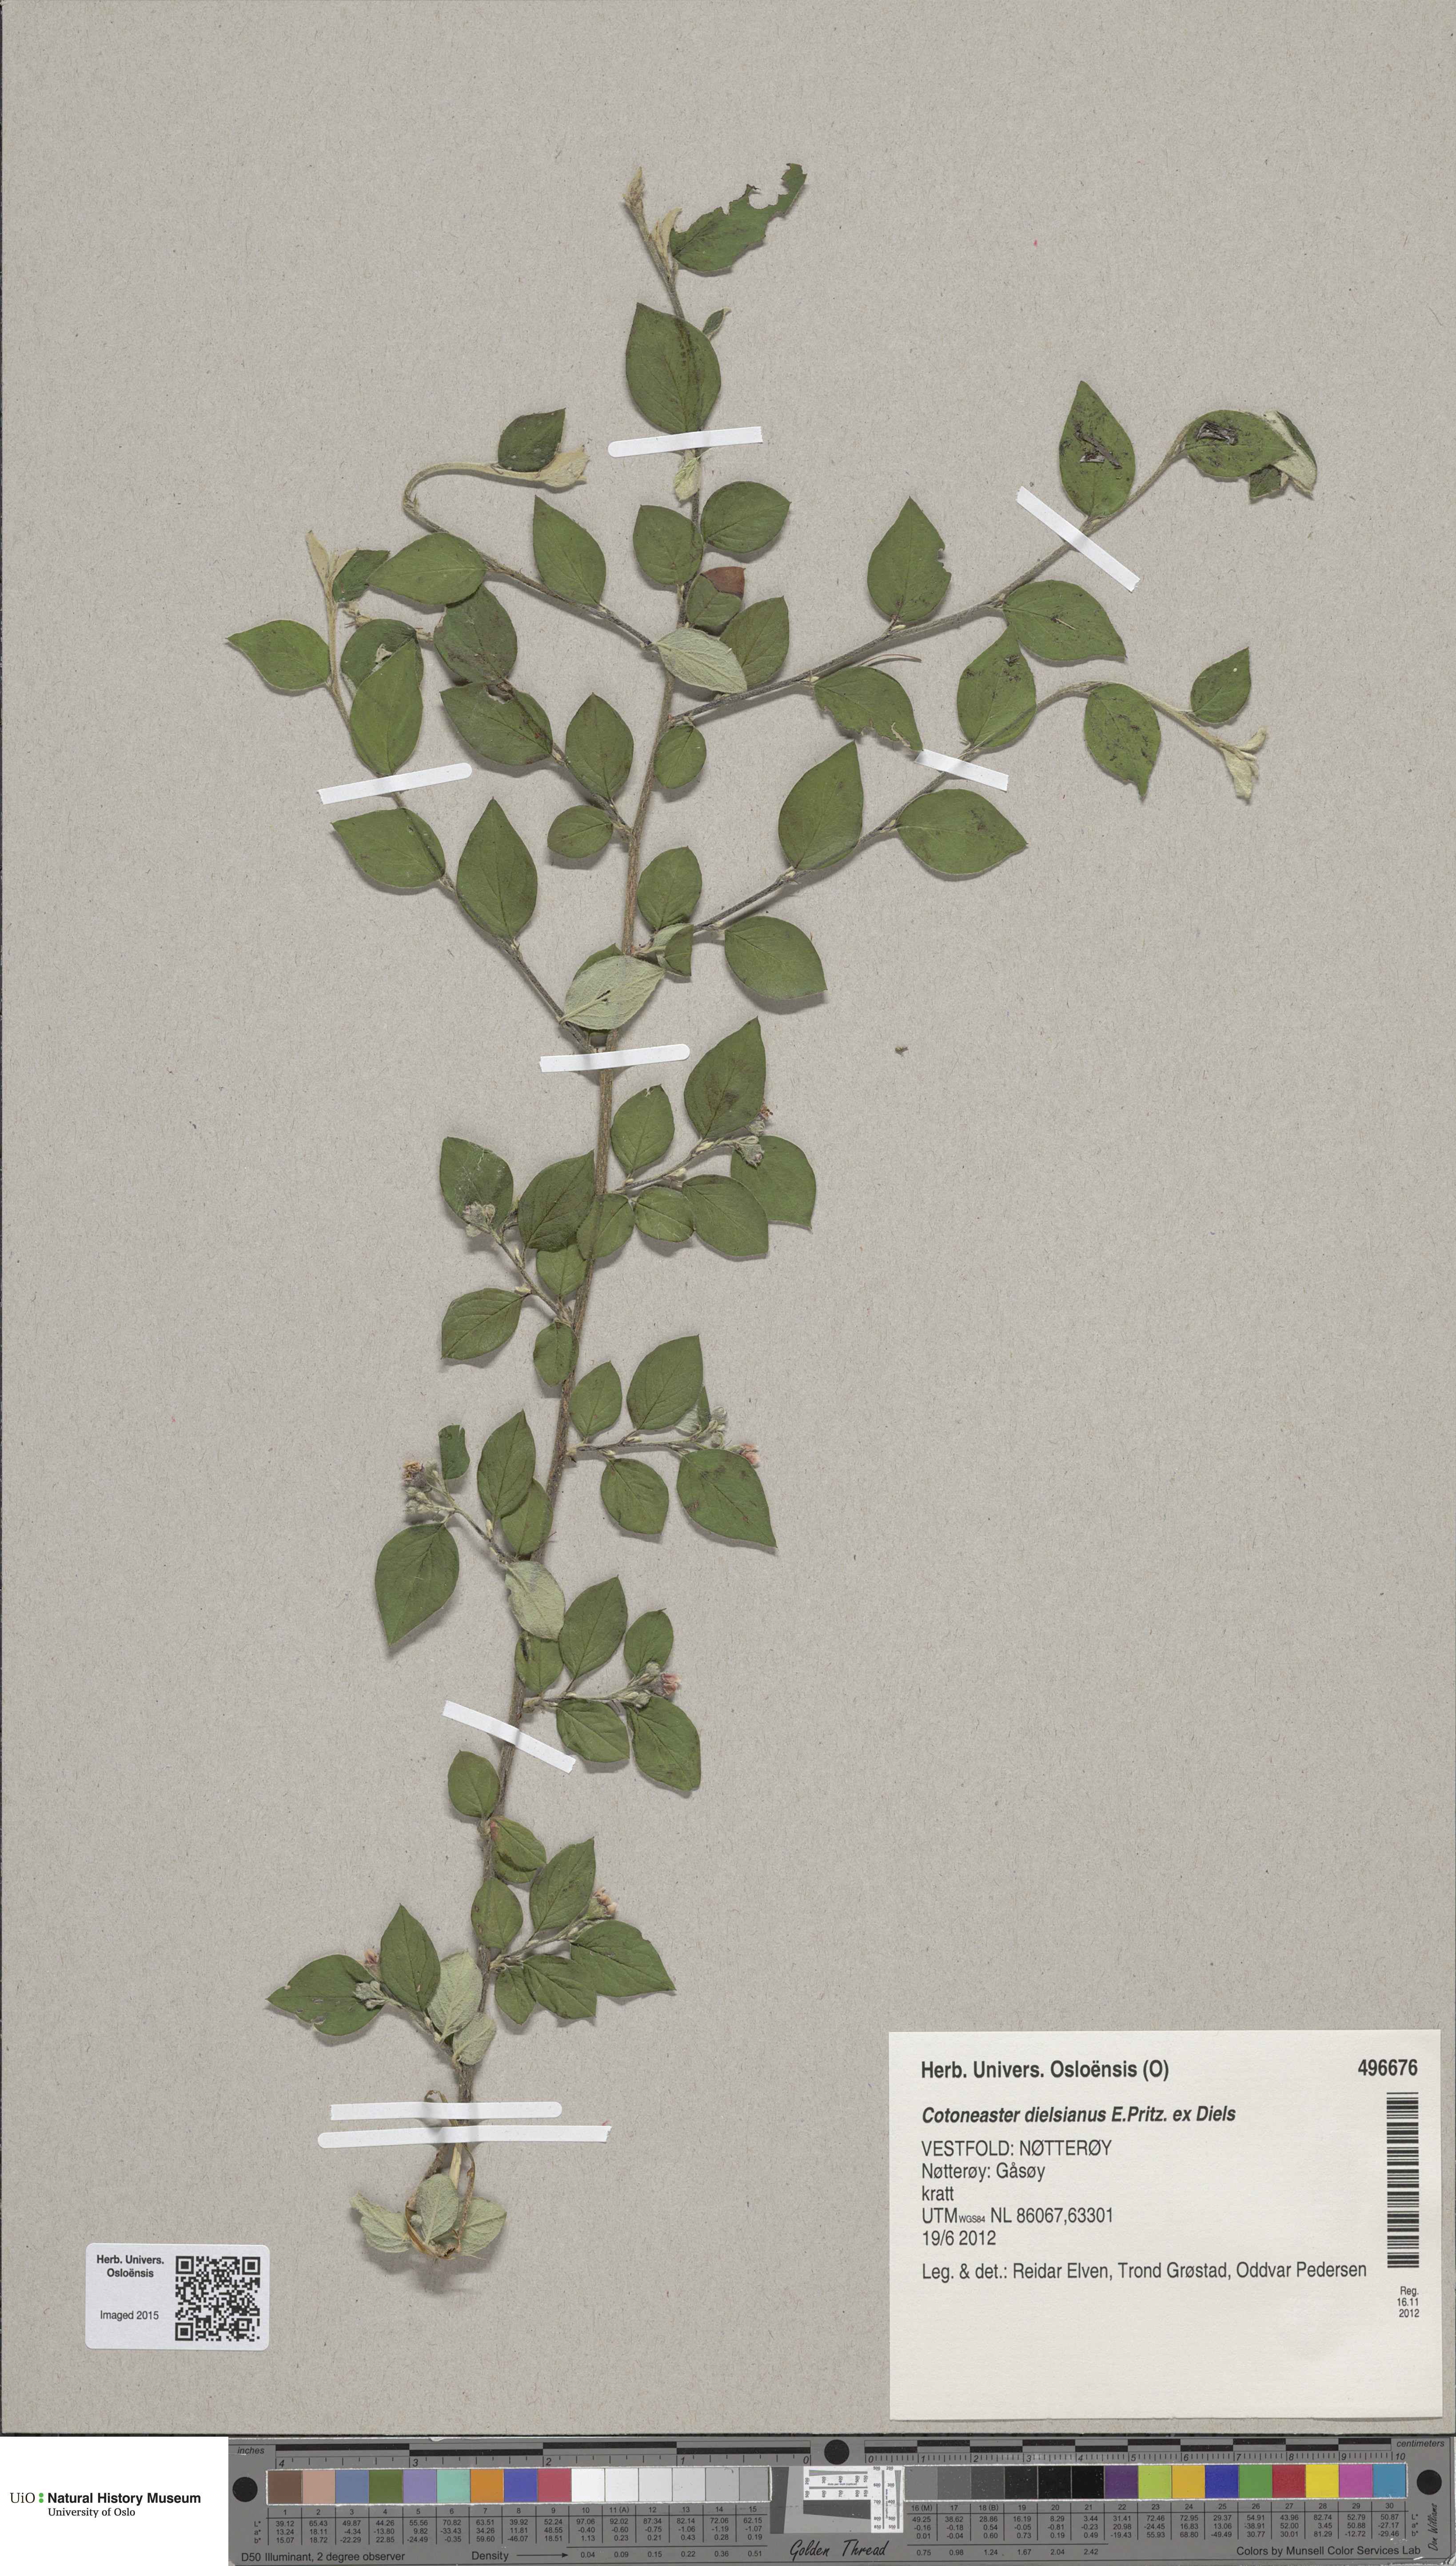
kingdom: Plantae
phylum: Tracheophyta
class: Magnoliopsida
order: Rosales
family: Rosaceae
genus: Cotoneaster
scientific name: Cotoneaster dielsianus
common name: Diels's cotoneaster
